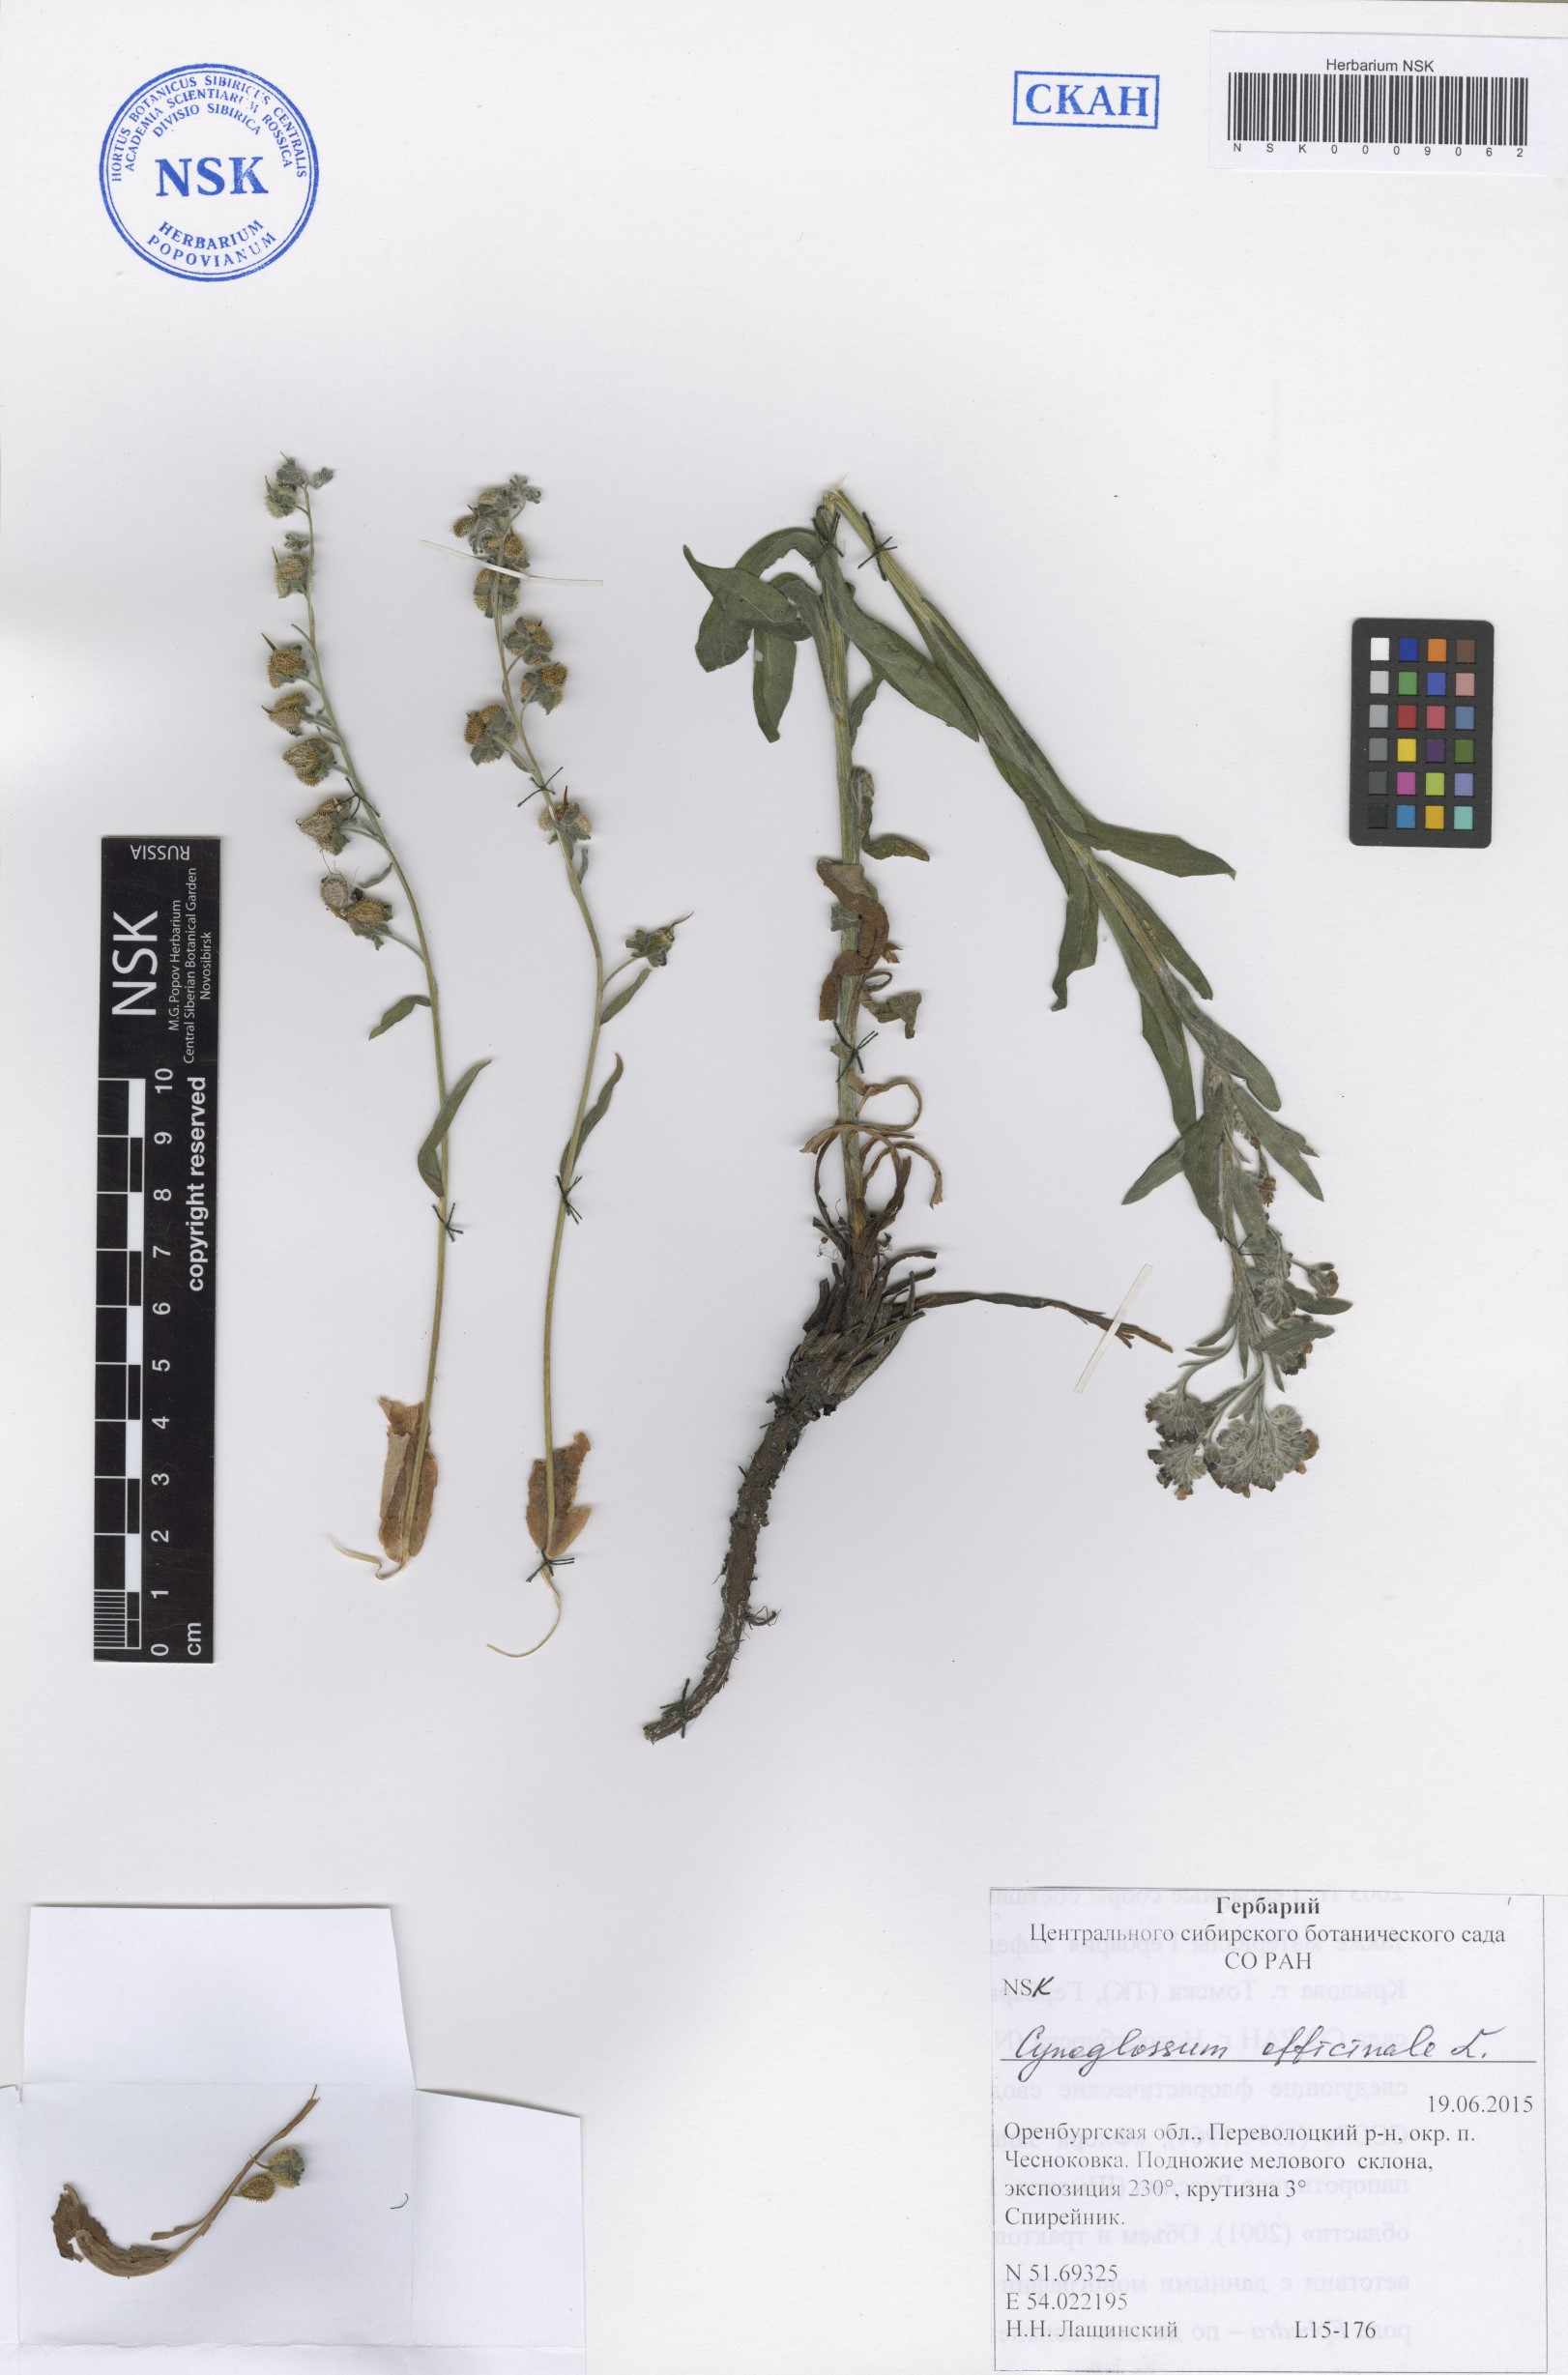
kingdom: Plantae
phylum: Tracheophyta
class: Magnoliopsida
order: Boraginales
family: Boraginaceae
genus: Cynoglossum
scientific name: Cynoglossum officinale
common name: Hound's-tongue
